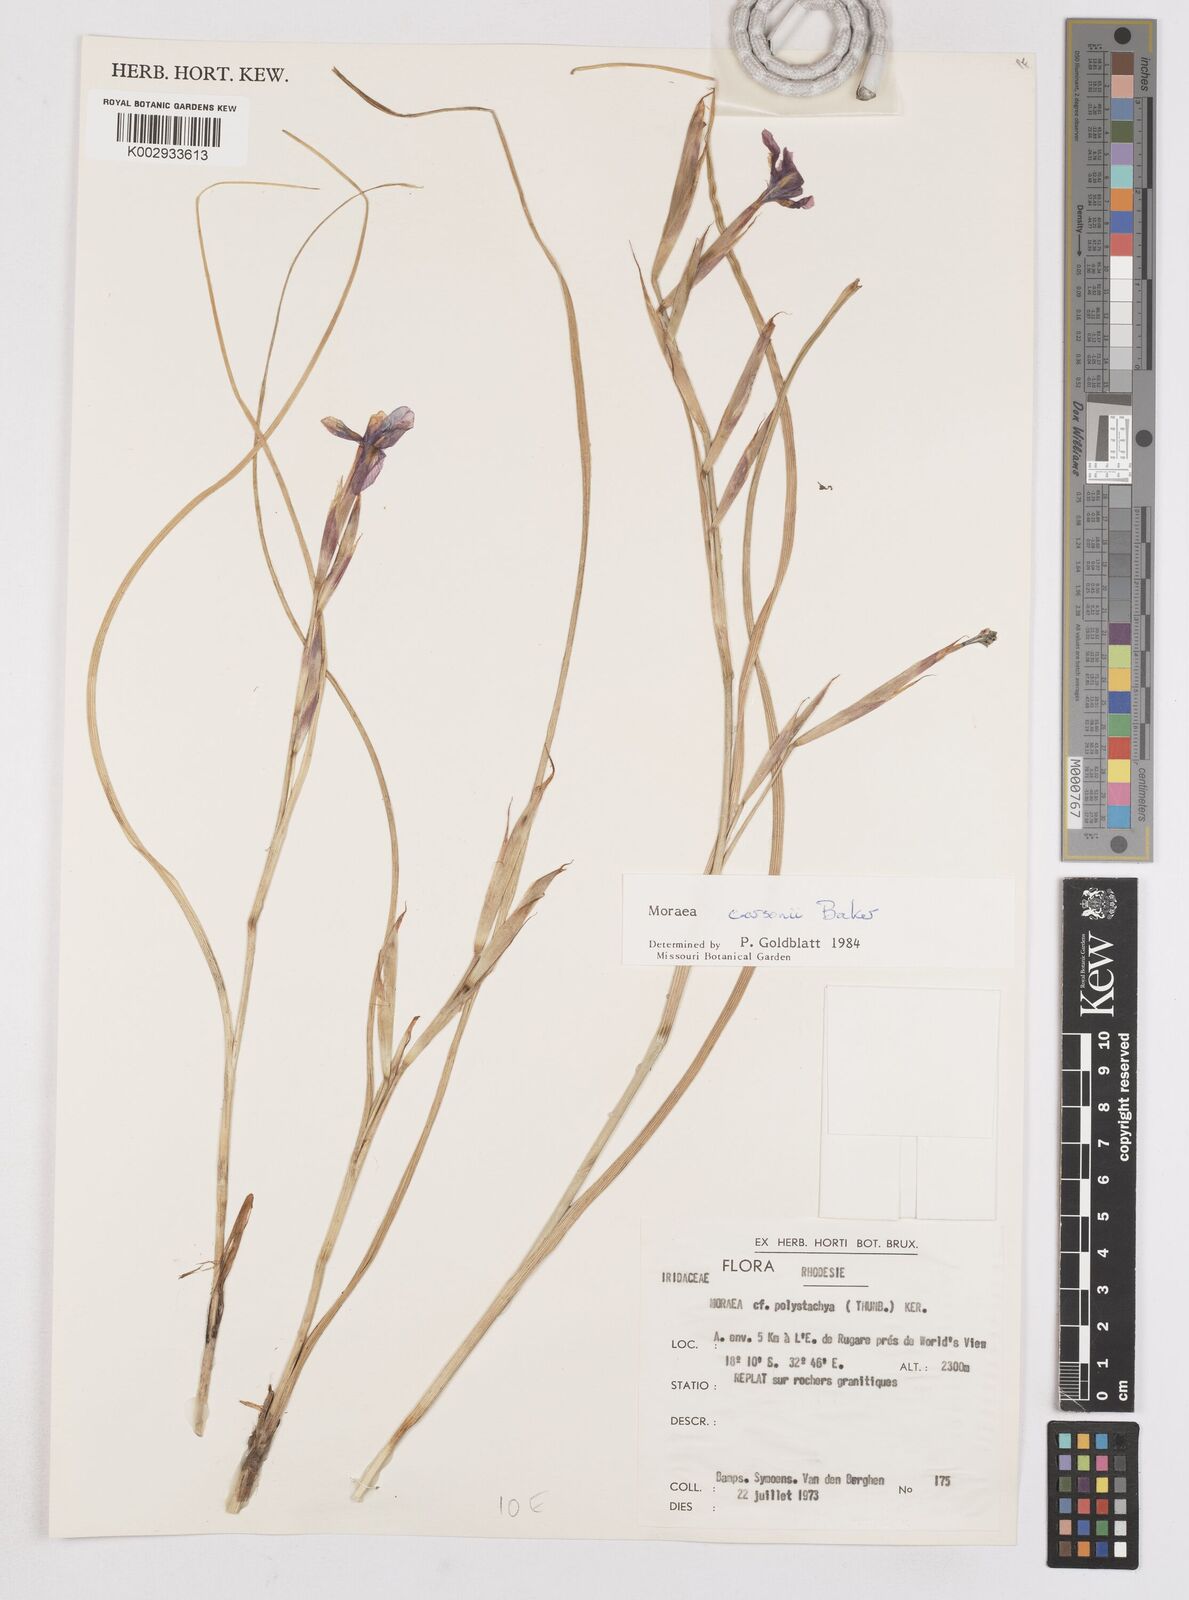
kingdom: Plantae
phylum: Tracheophyta
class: Liliopsida
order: Asparagales
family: Iridaceae
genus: Moraea
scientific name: Moraea carsonii
